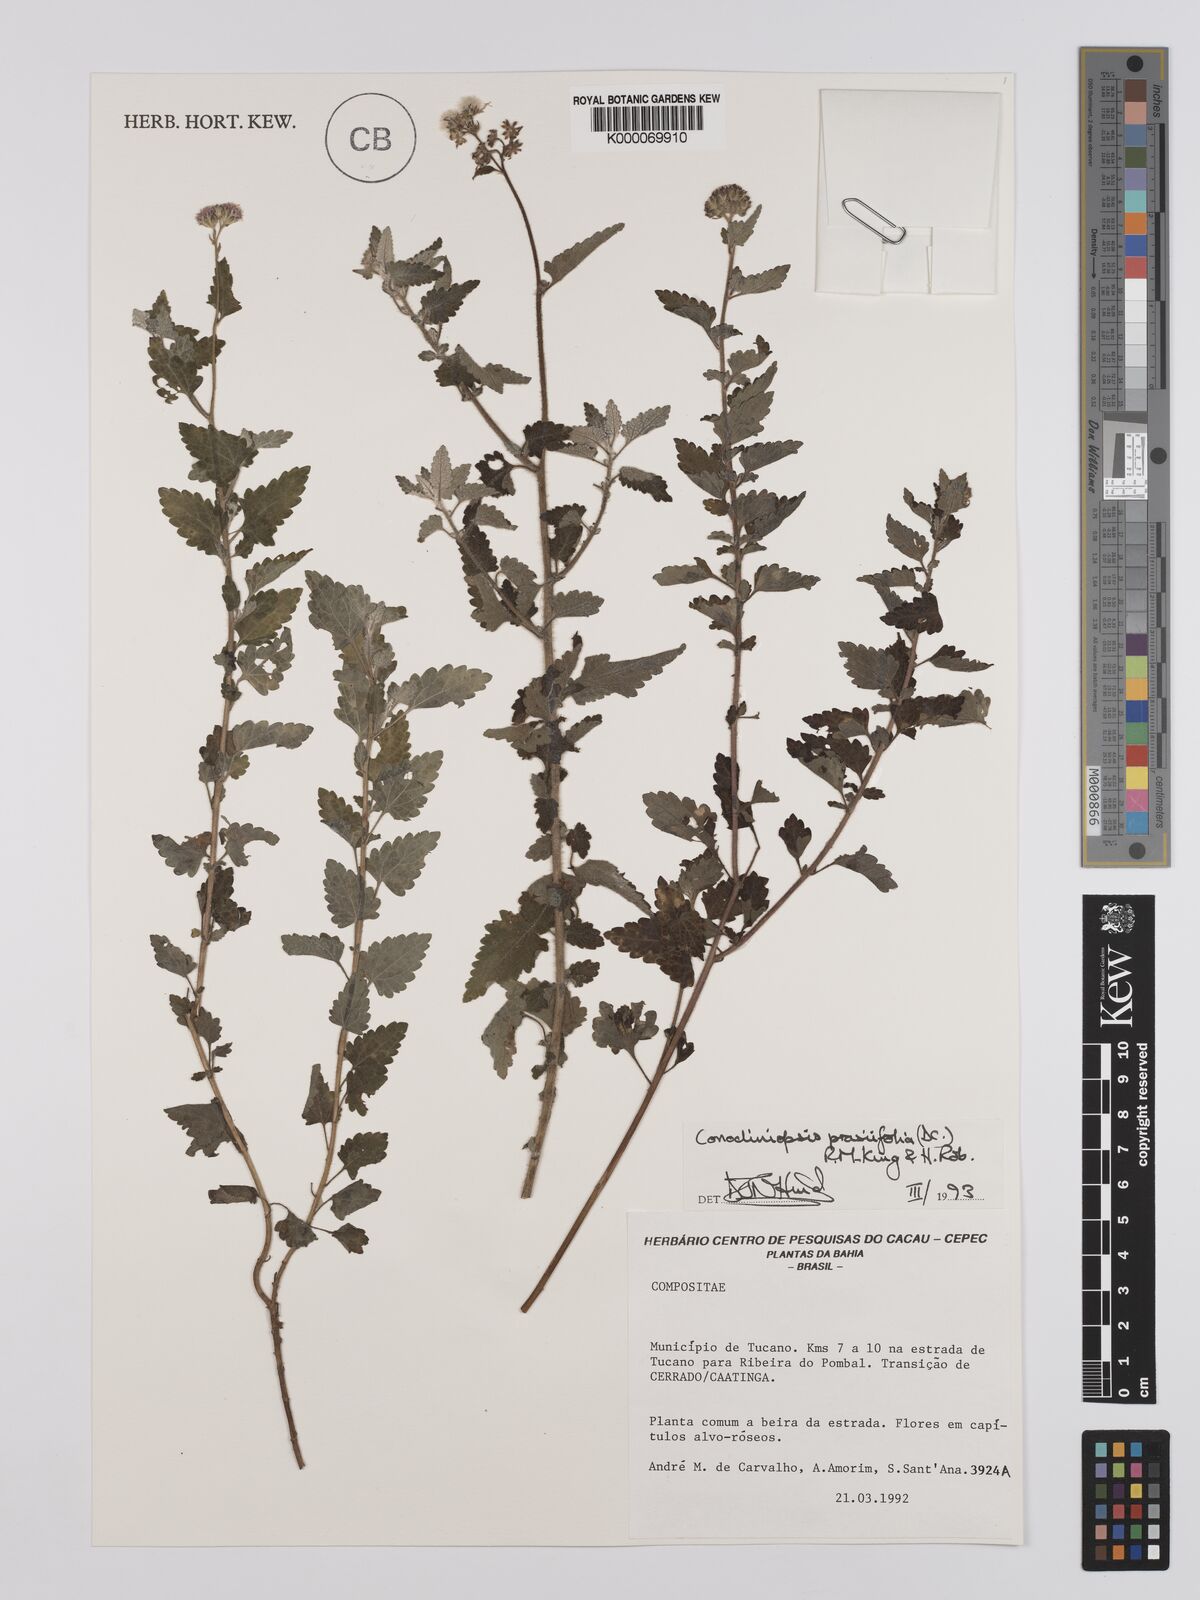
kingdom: Plantae
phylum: Tracheophyta
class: Magnoliopsida
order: Asterales
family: Asteraceae
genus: Conocliniopsis
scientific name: Conocliniopsis grossedentata
